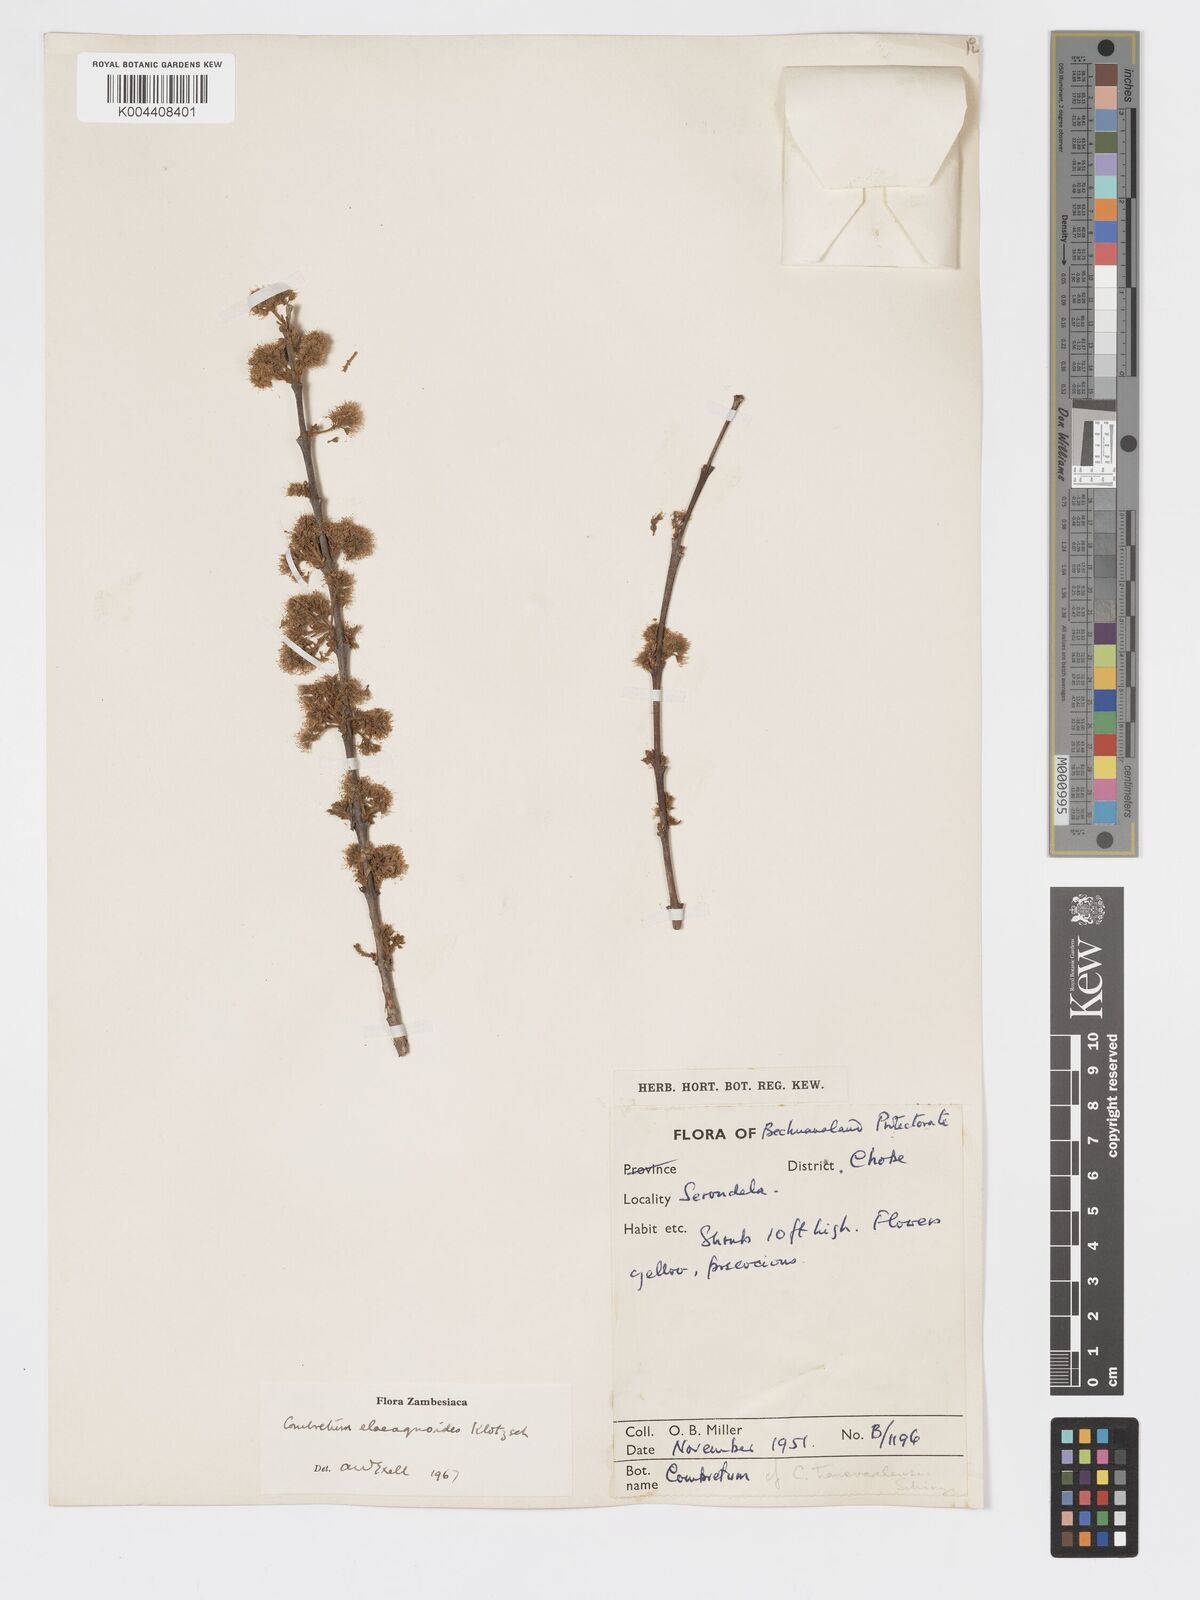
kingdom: Plantae
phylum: Tracheophyta
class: Magnoliopsida
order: Myrtales
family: Combretaceae
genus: Combretum
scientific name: Combretum elaeagnoides
